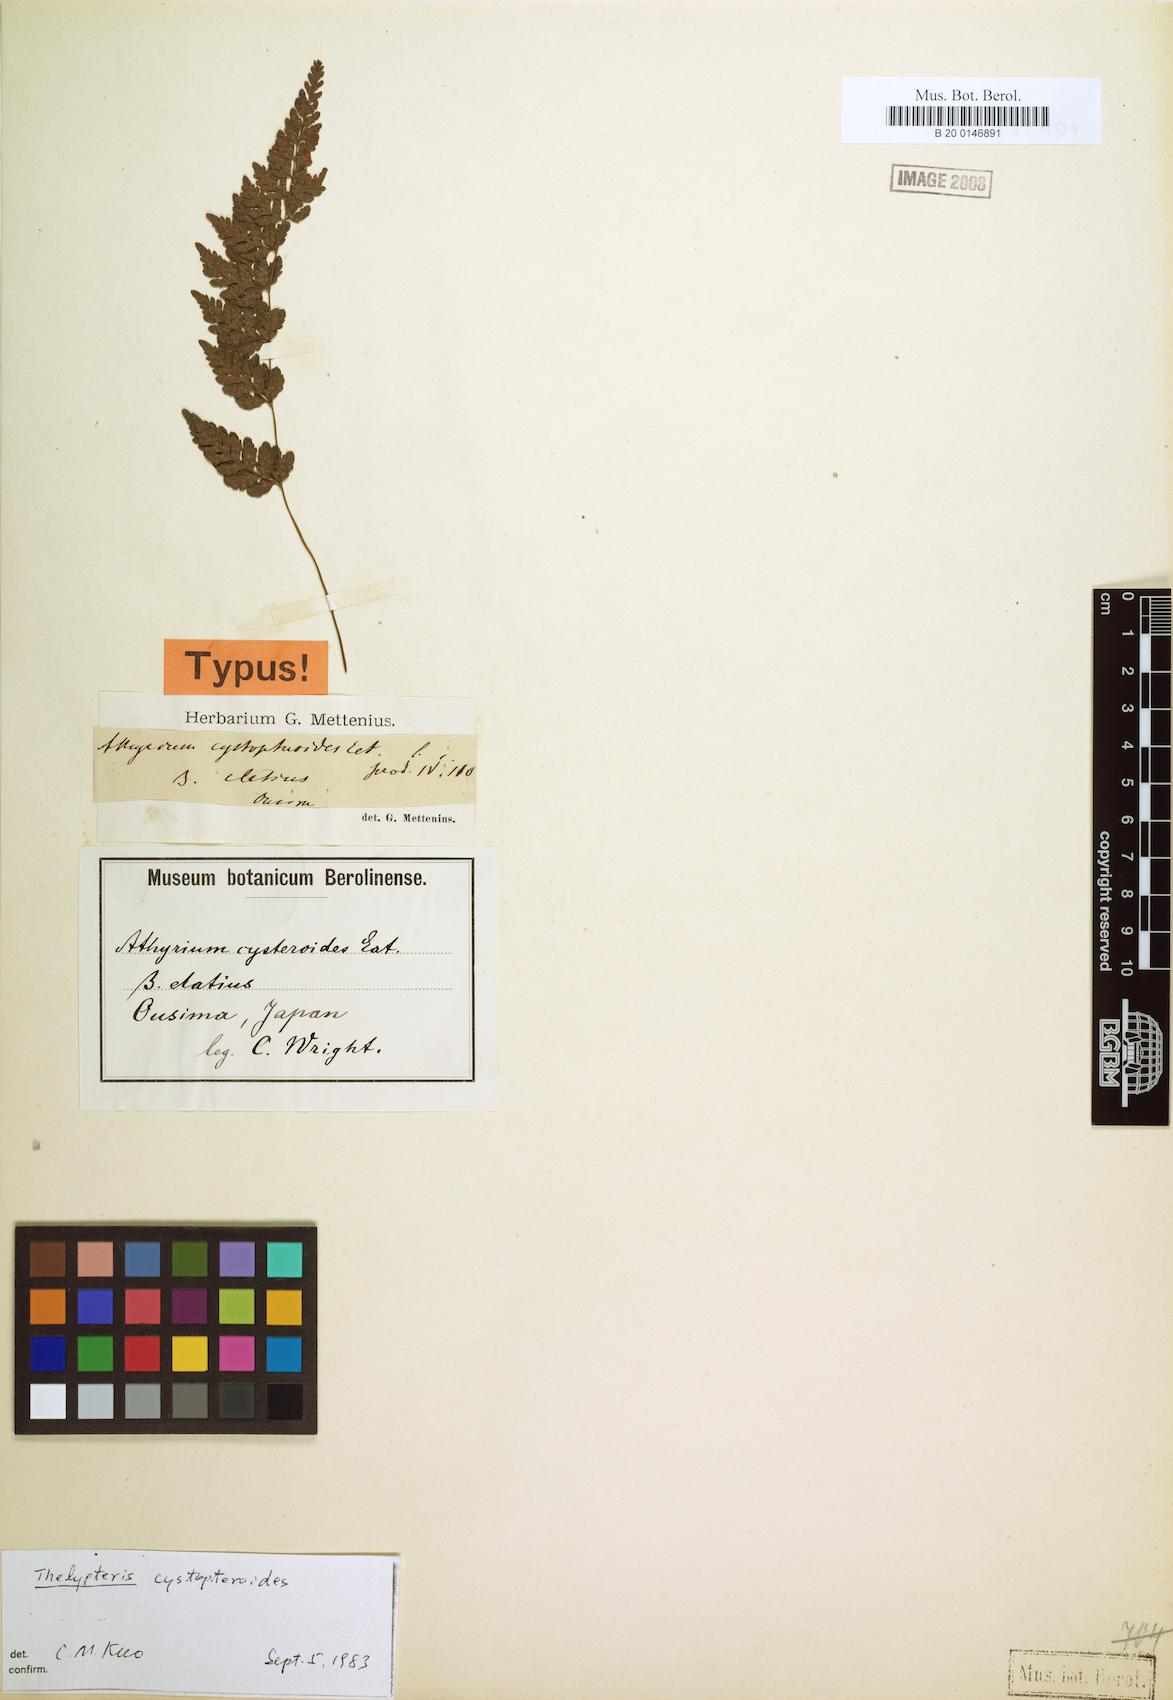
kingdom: Plantae
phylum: Tracheophyta
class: Polypodiopsida
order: Polypodiales
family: Thelypteridaceae
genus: Amauropelta
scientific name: Amauropelta cystopteroides
